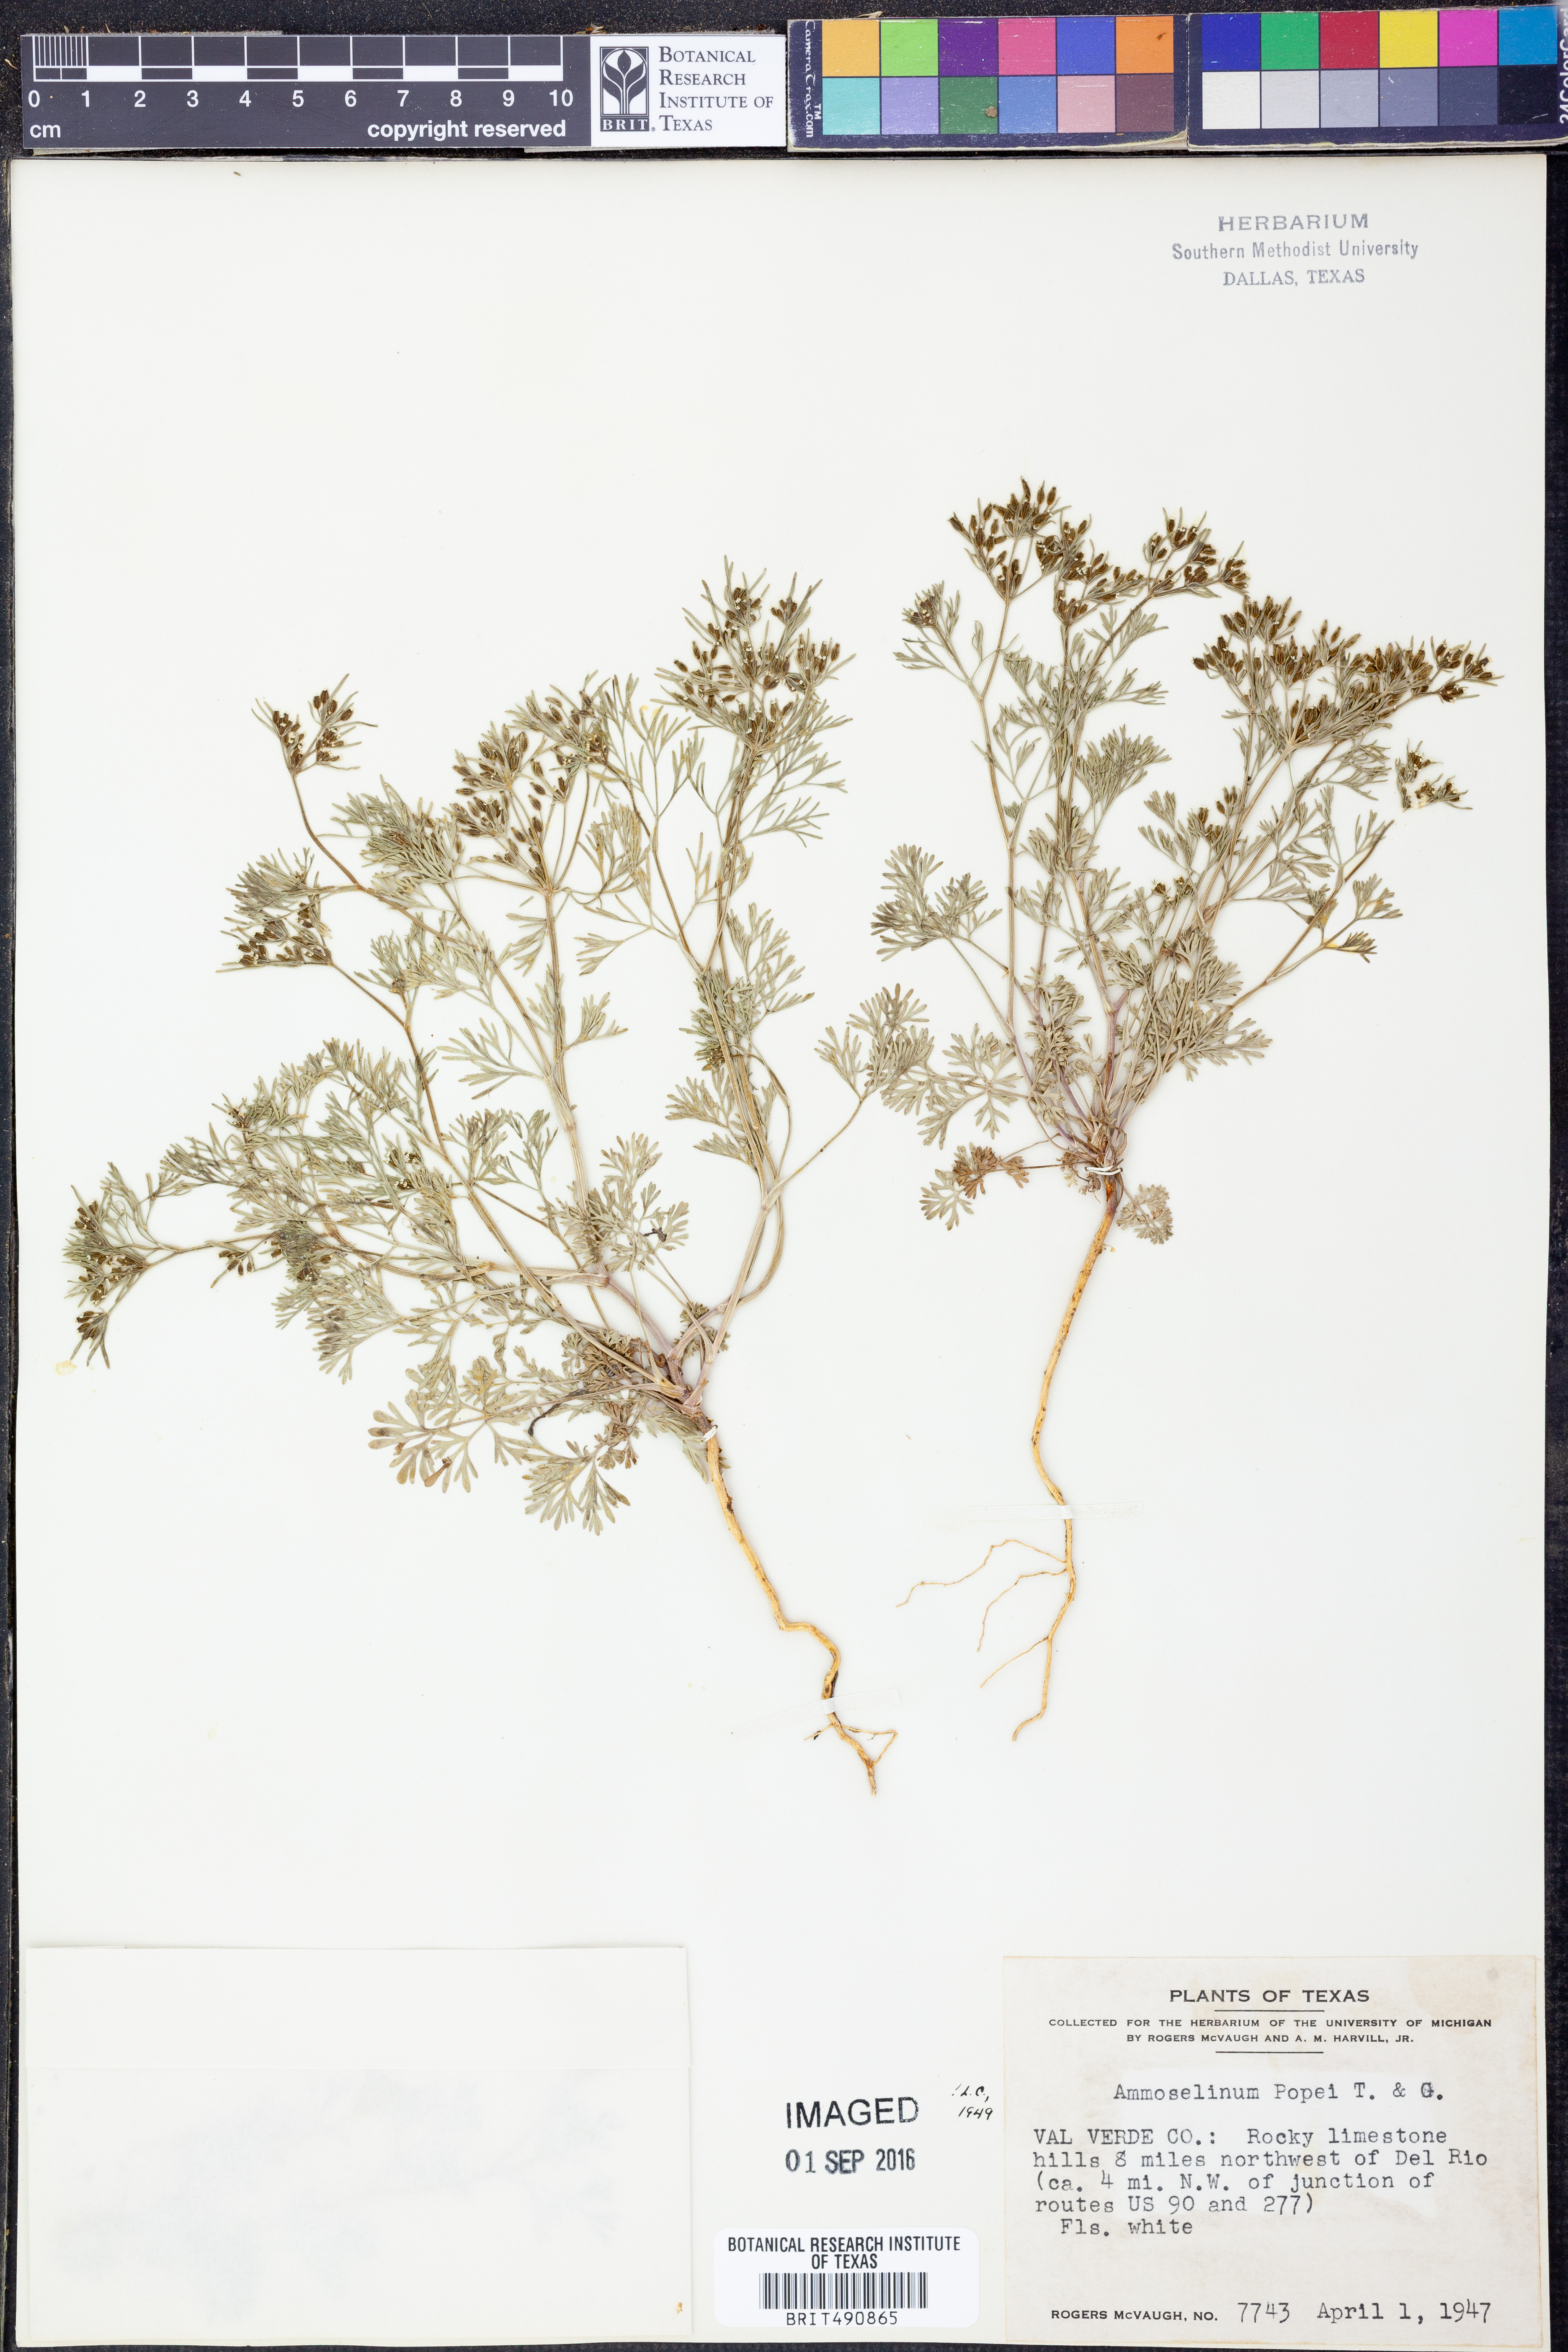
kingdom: Plantae
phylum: Tracheophyta
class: Magnoliopsida
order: Apiales
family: Apiaceae
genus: Ammoselinum
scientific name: Ammoselinum popei
